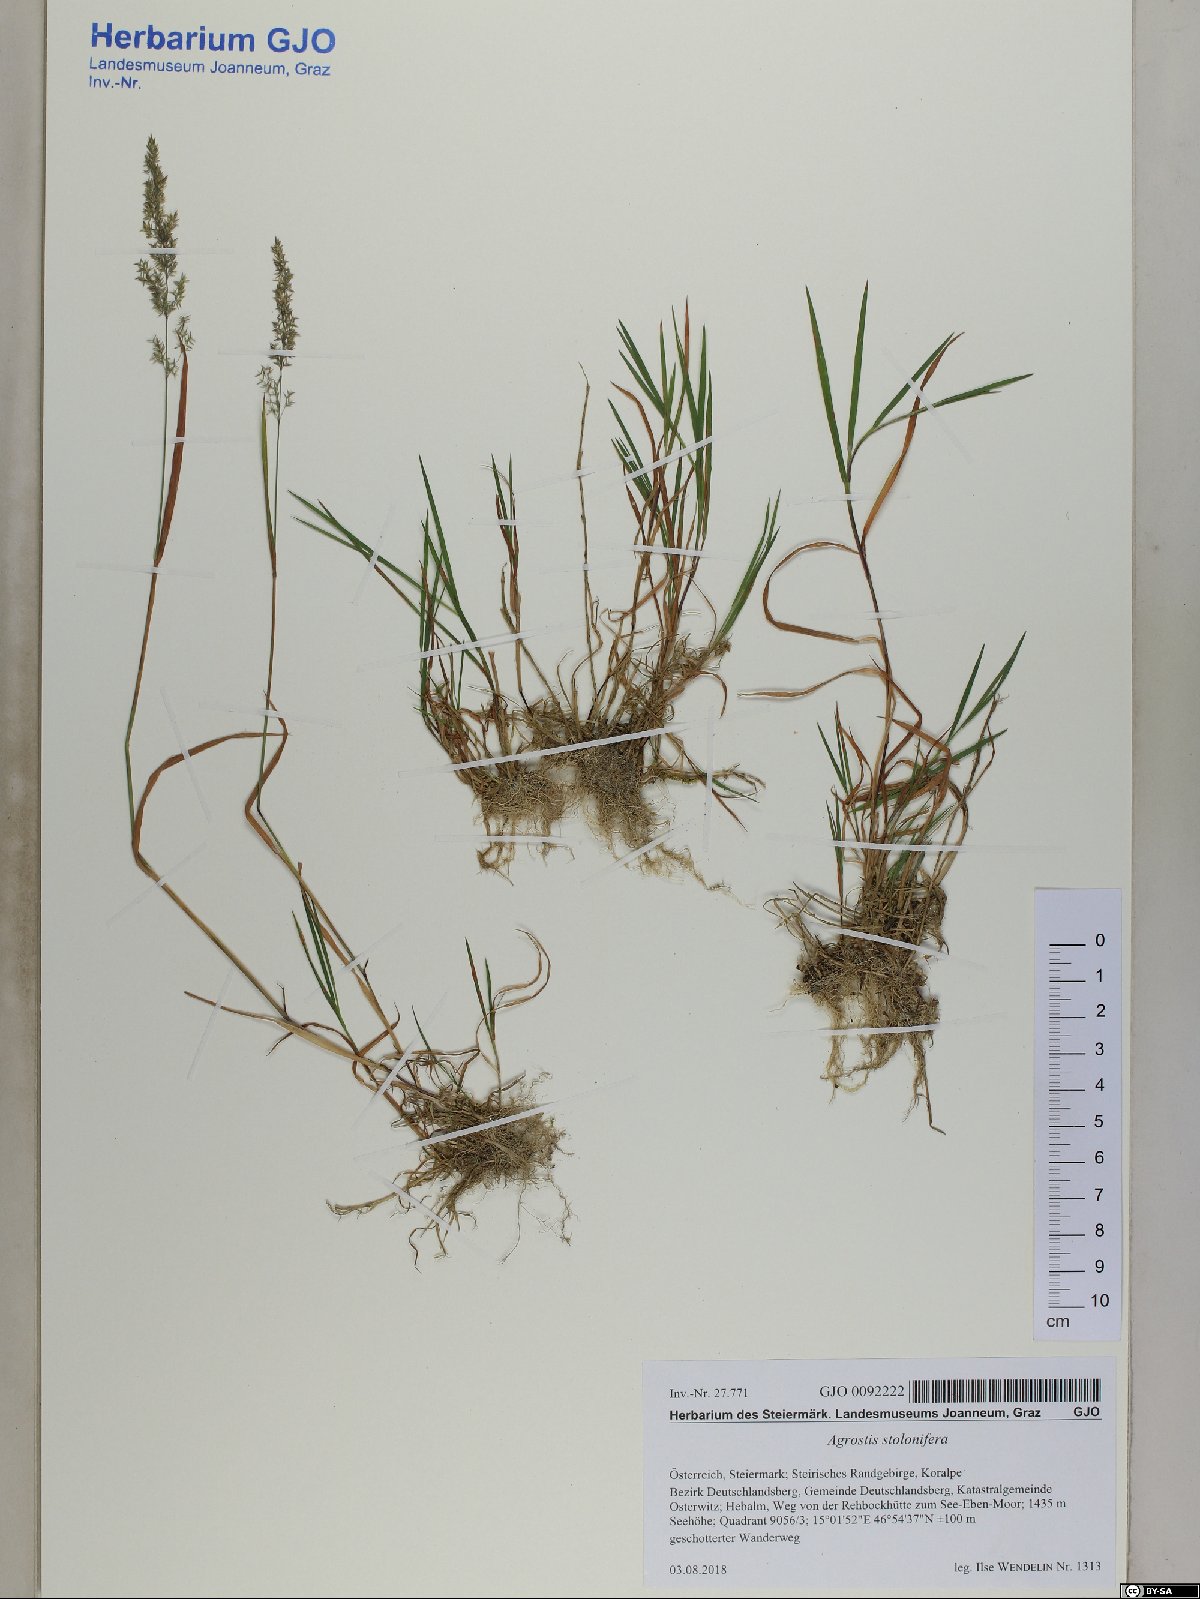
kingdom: Plantae
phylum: Tracheophyta
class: Liliopsida
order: Poales
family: Poaceae
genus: Agrostis
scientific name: Agrostis stolonifera
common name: Creeping bentgrass
